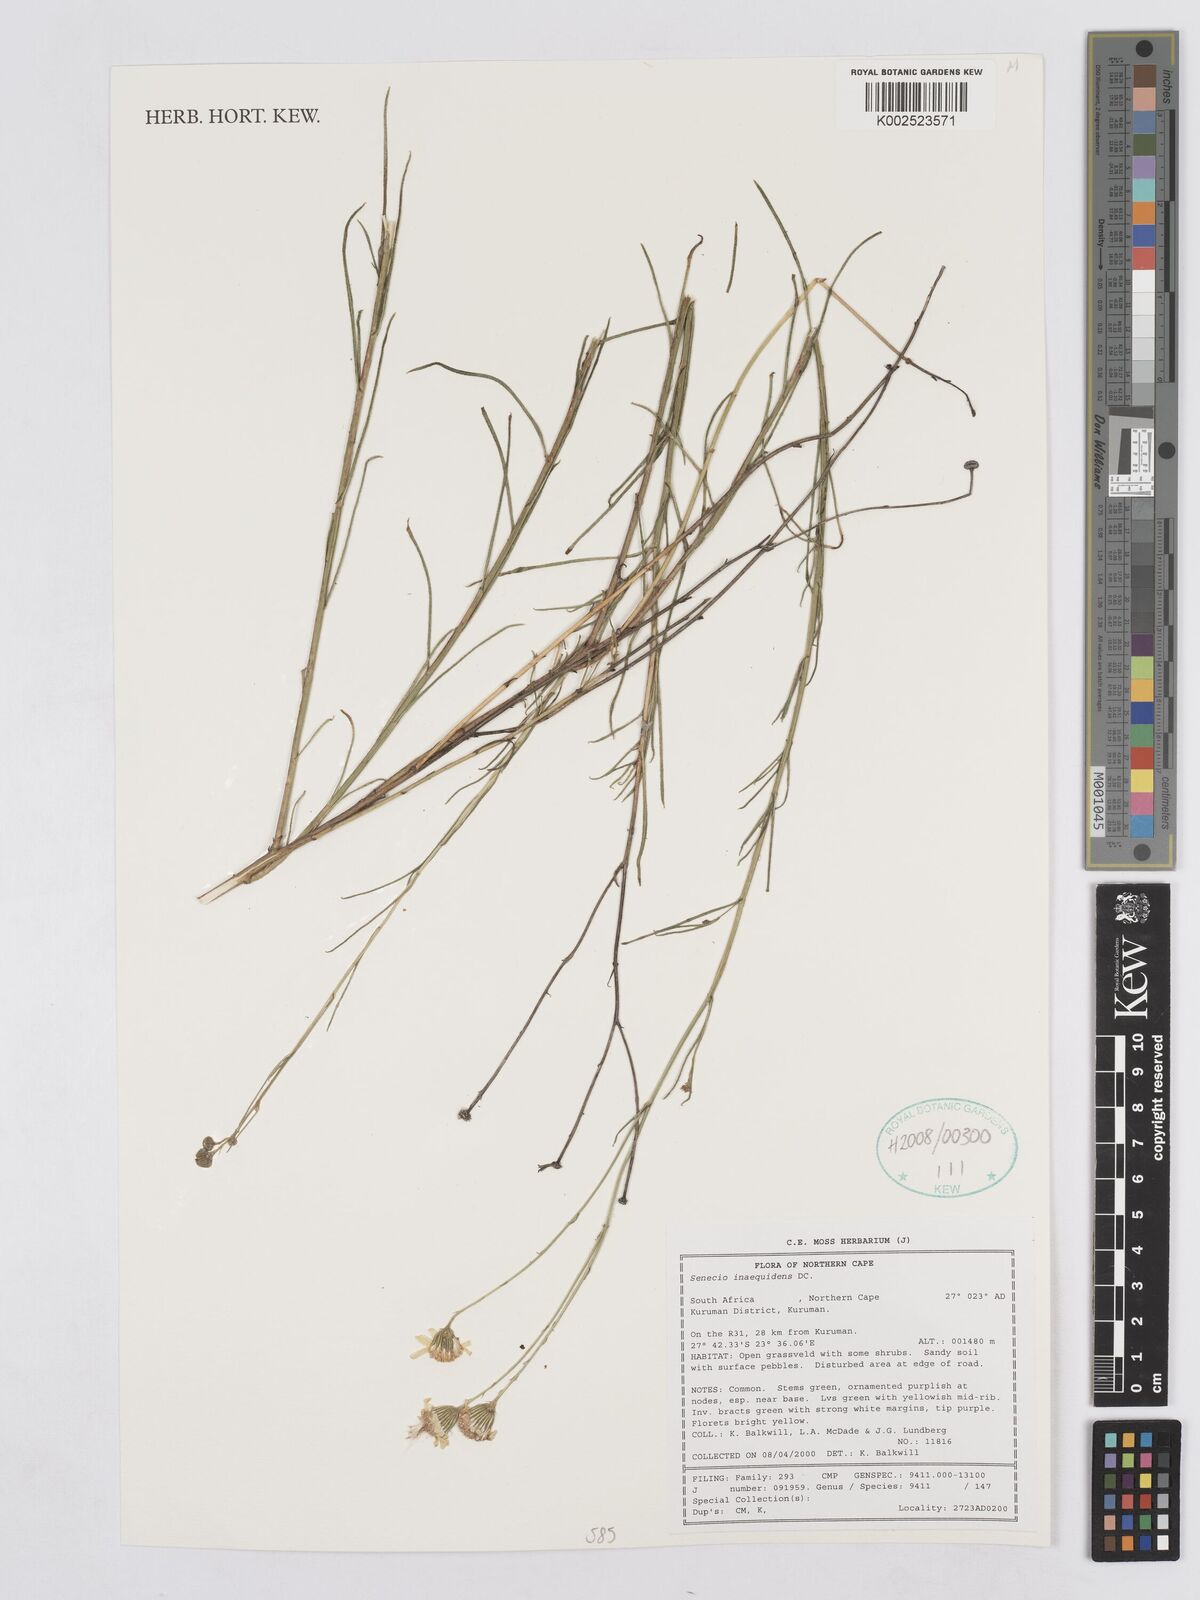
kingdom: Plantae
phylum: Tracheophyta
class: Magnoliopsida
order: Asterales
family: Asteraceae
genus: Senecio
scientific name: Senecio inaequidens
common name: Narrow-leaved ragwort
